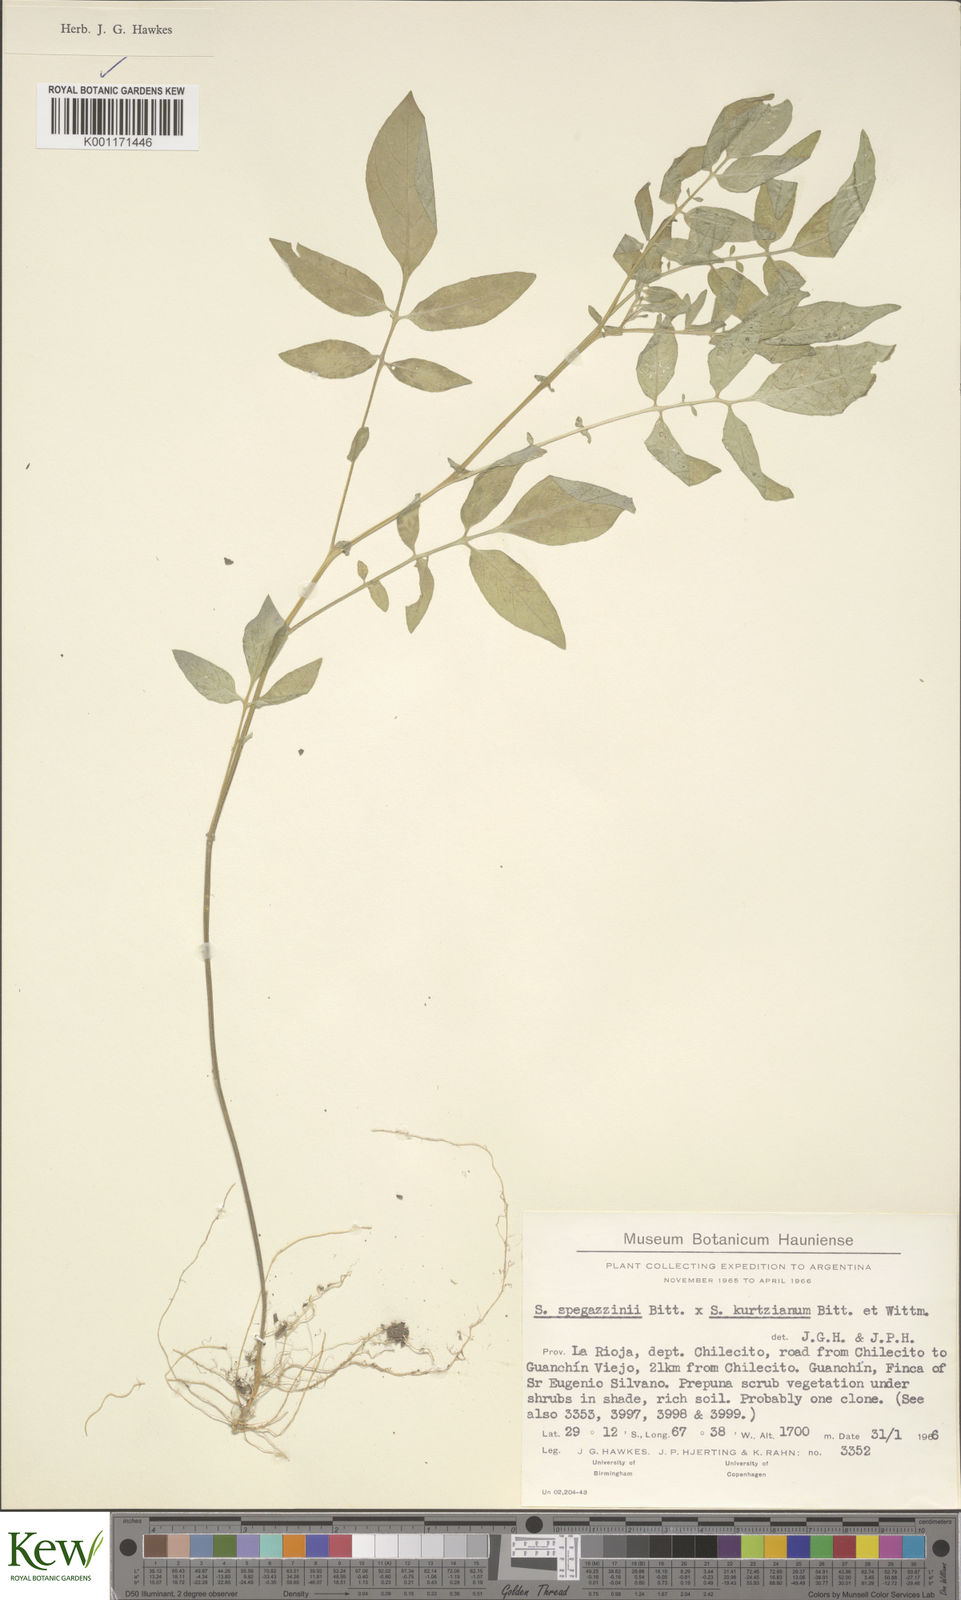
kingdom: Plantae
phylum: Tracheophyta
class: Magnoliopsida
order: Solanales
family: Solanaceae
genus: Solanum
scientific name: Solanum brevicaule
